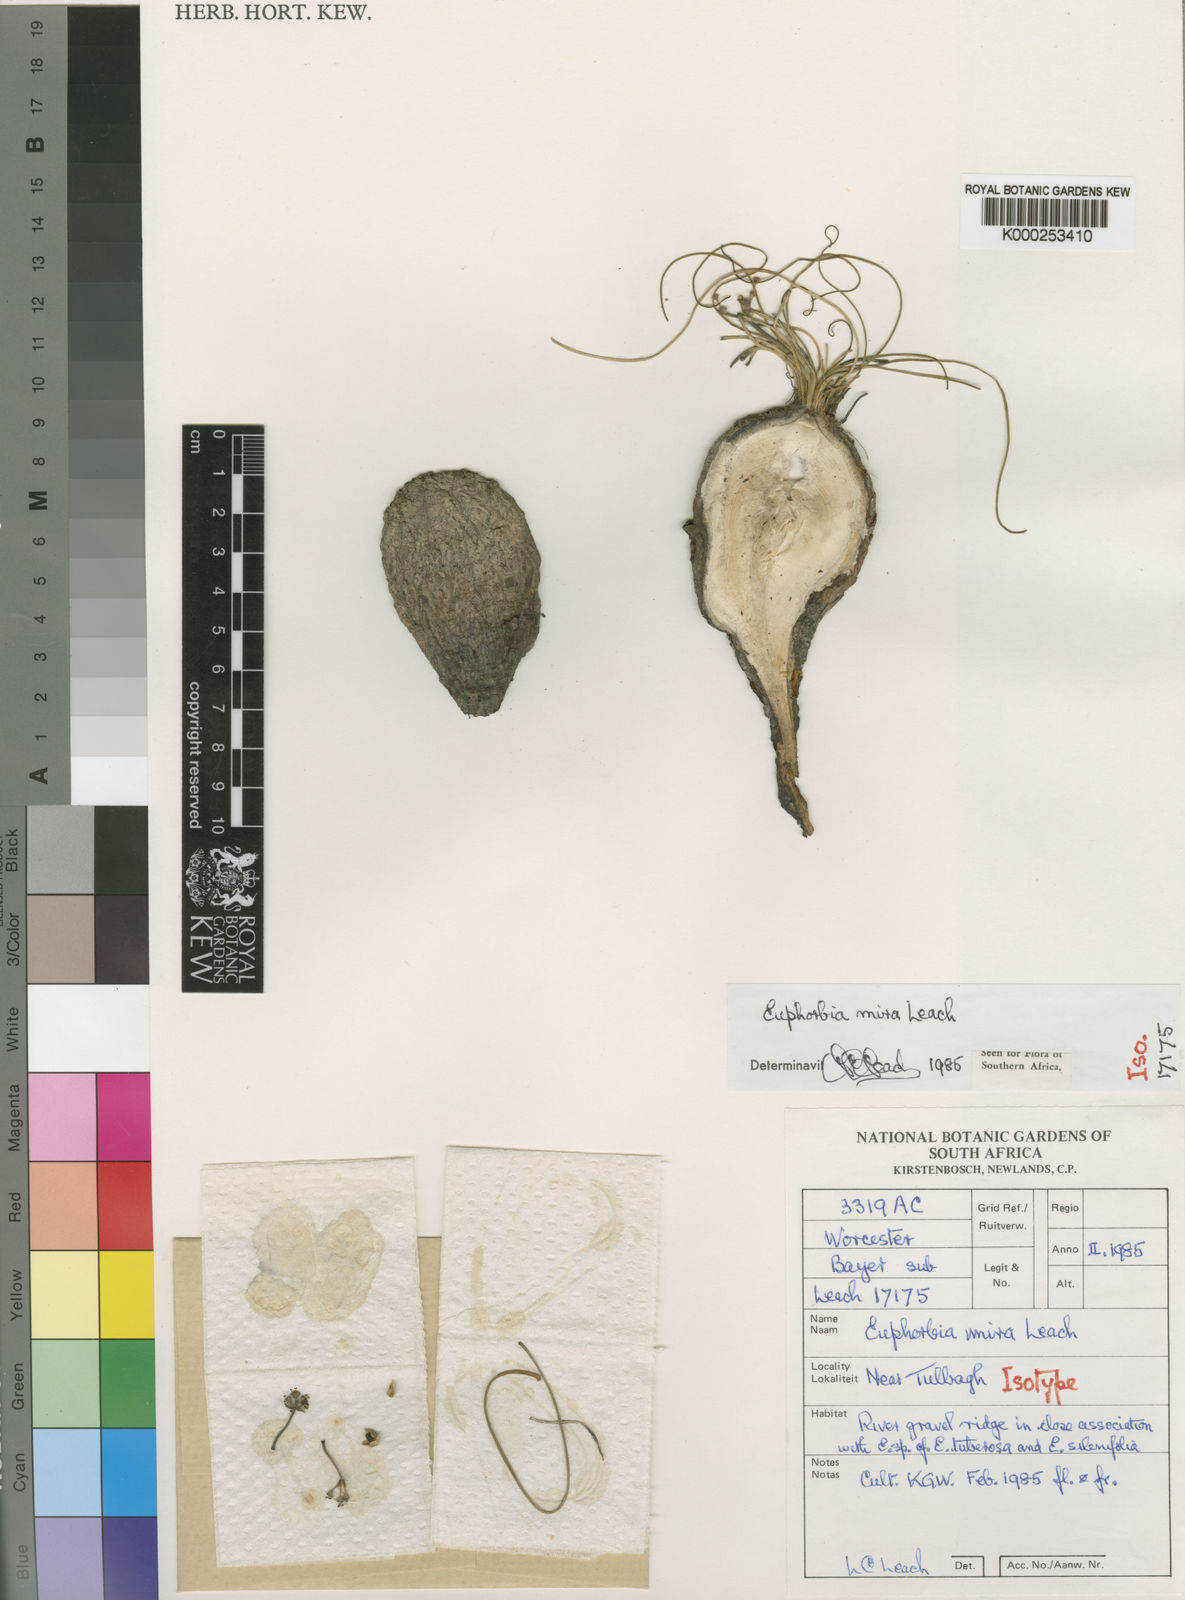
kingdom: Plantae
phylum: Tracheophyta
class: Magnoliopsida
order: Malpighiales
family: Euphorbiaceae
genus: Euphorbia
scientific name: Euphorbia silenifolia
